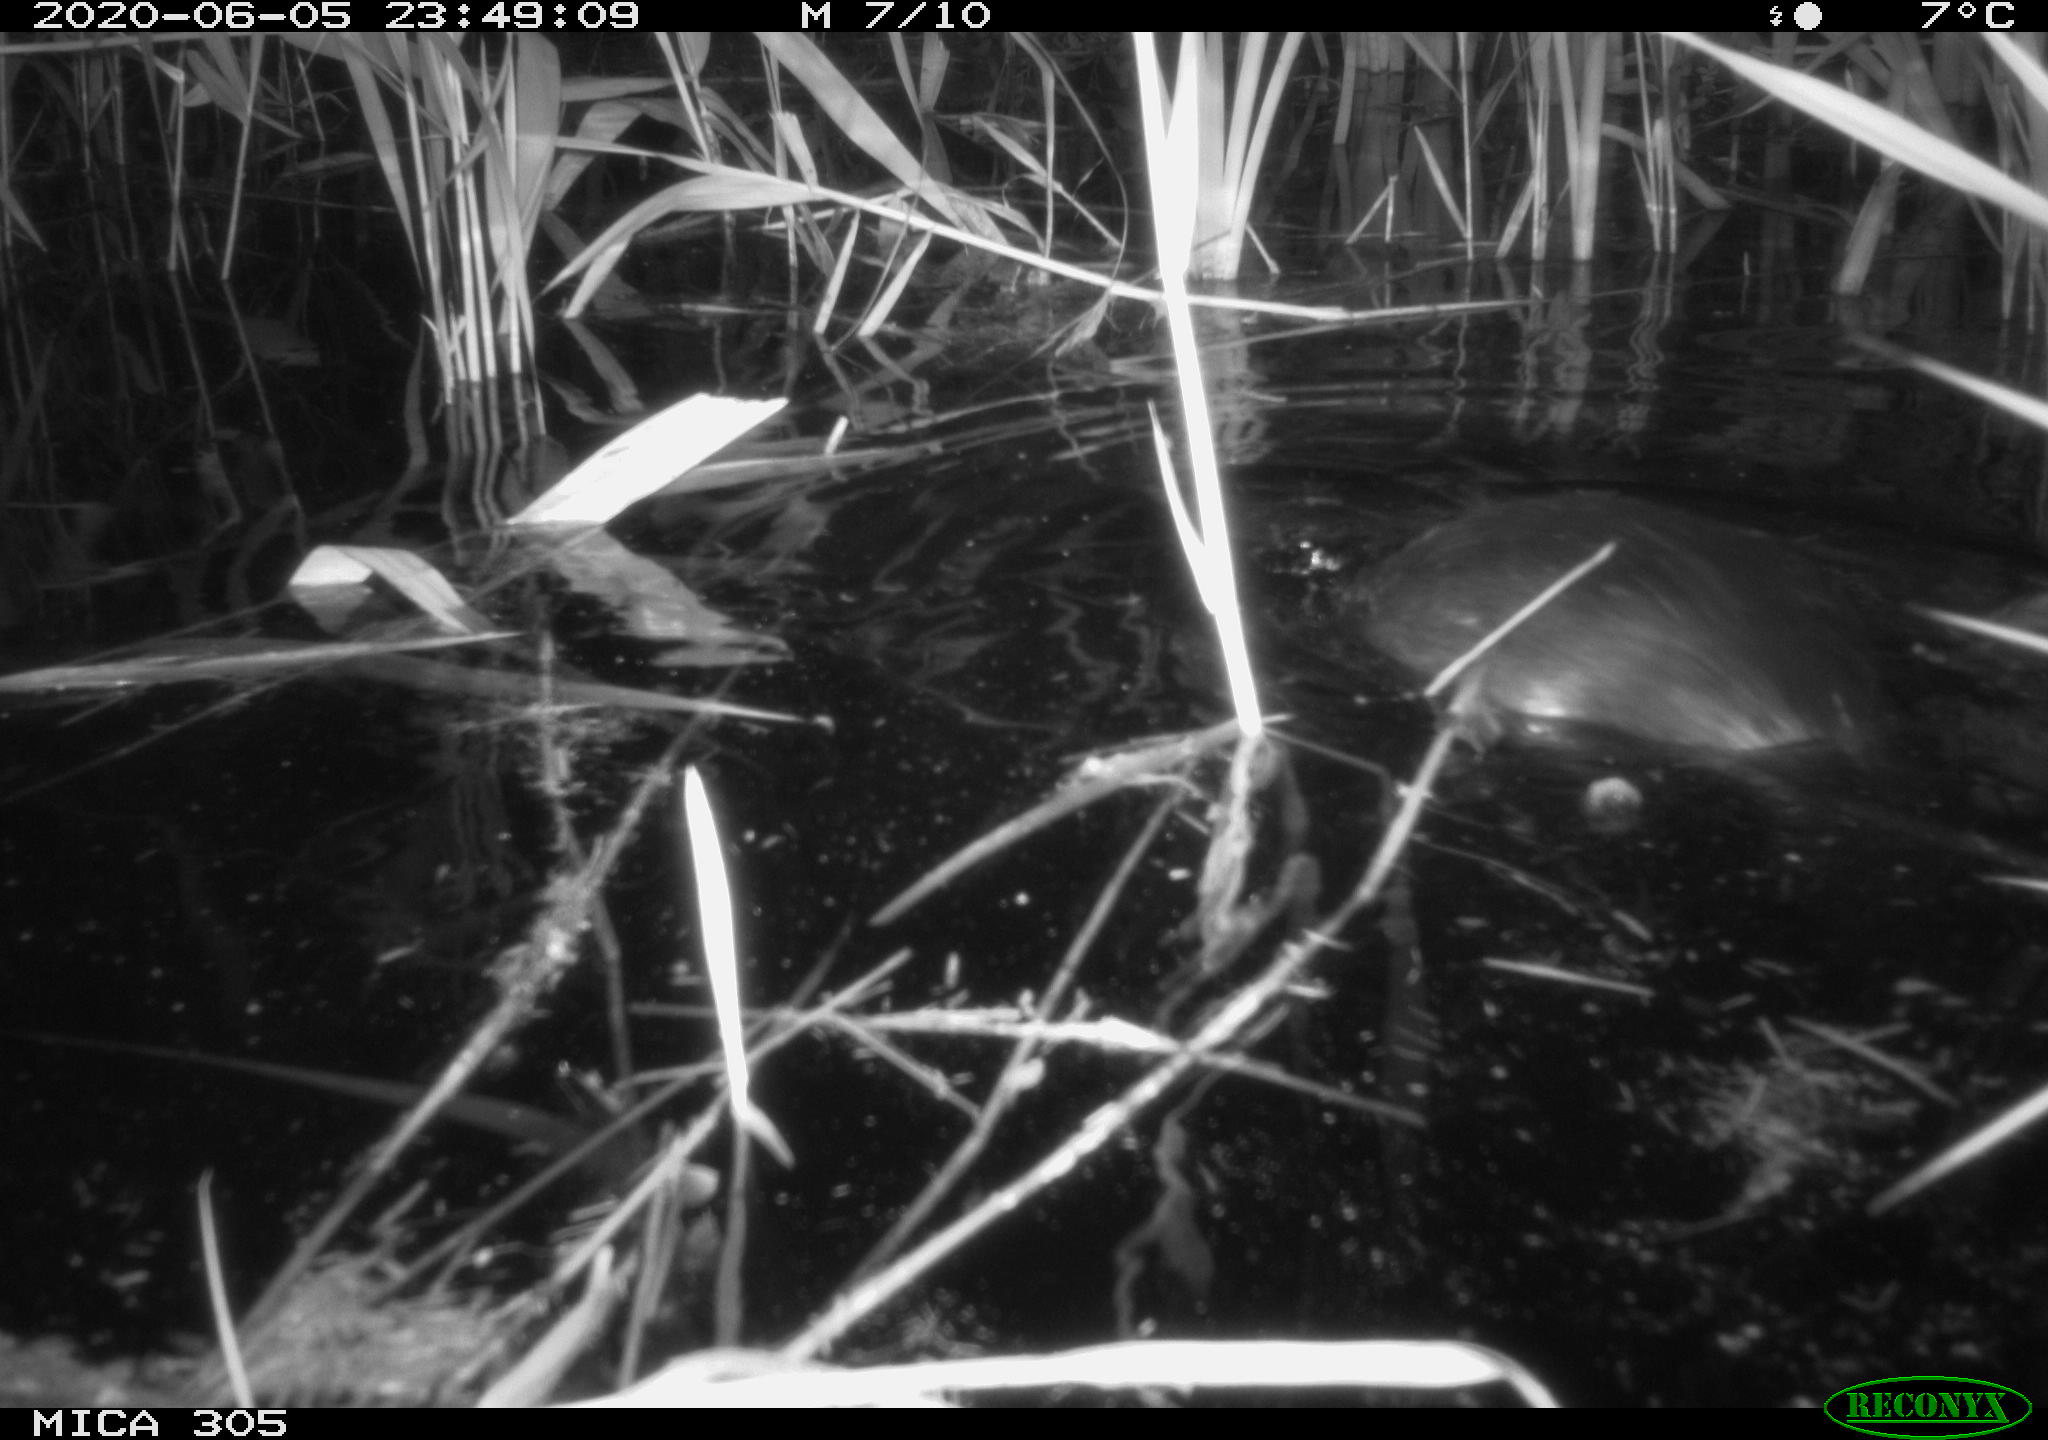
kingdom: Animalia
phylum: Chordata
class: Mammalia
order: Rodentia
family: Castoridae
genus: Castor
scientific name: Castor fiber
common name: Eurasian beaver
